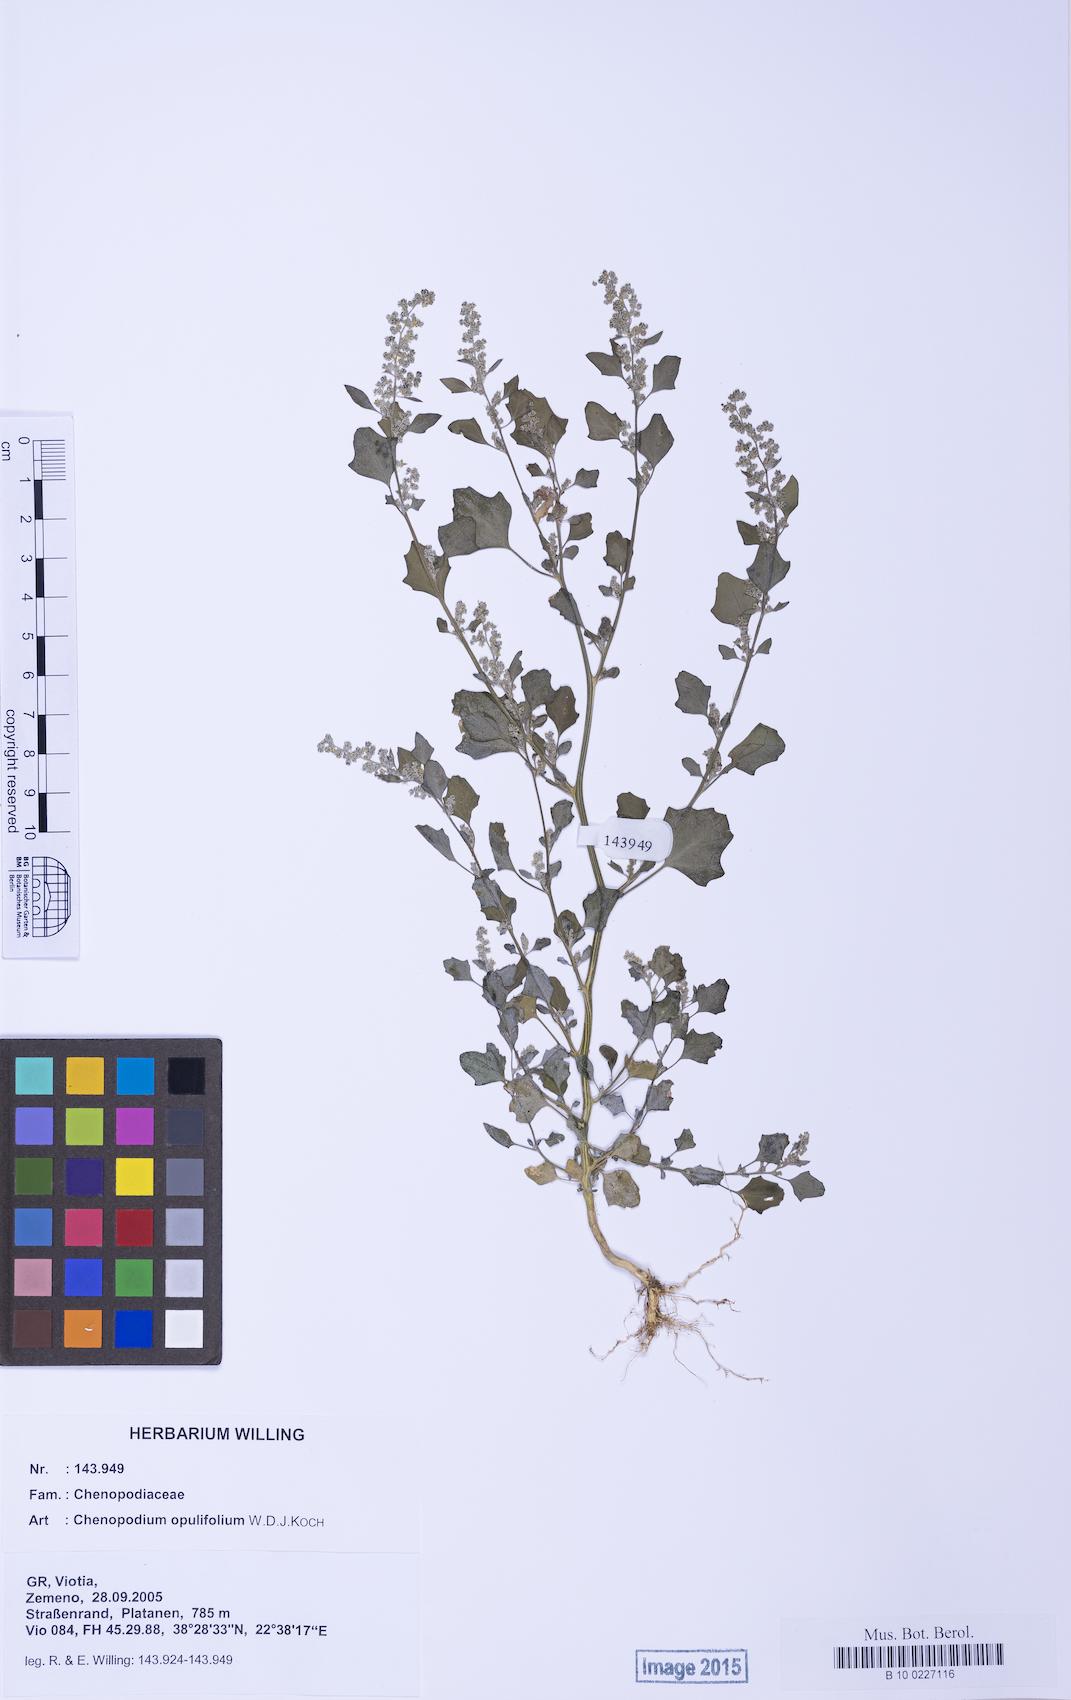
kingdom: Plantae
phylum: Tracheophyta
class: Magnoliopsida
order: Caryophyllales
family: Amaranthaceae
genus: Chenopodium
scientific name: Chenopodium opulifolium
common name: Grey goosefoot
